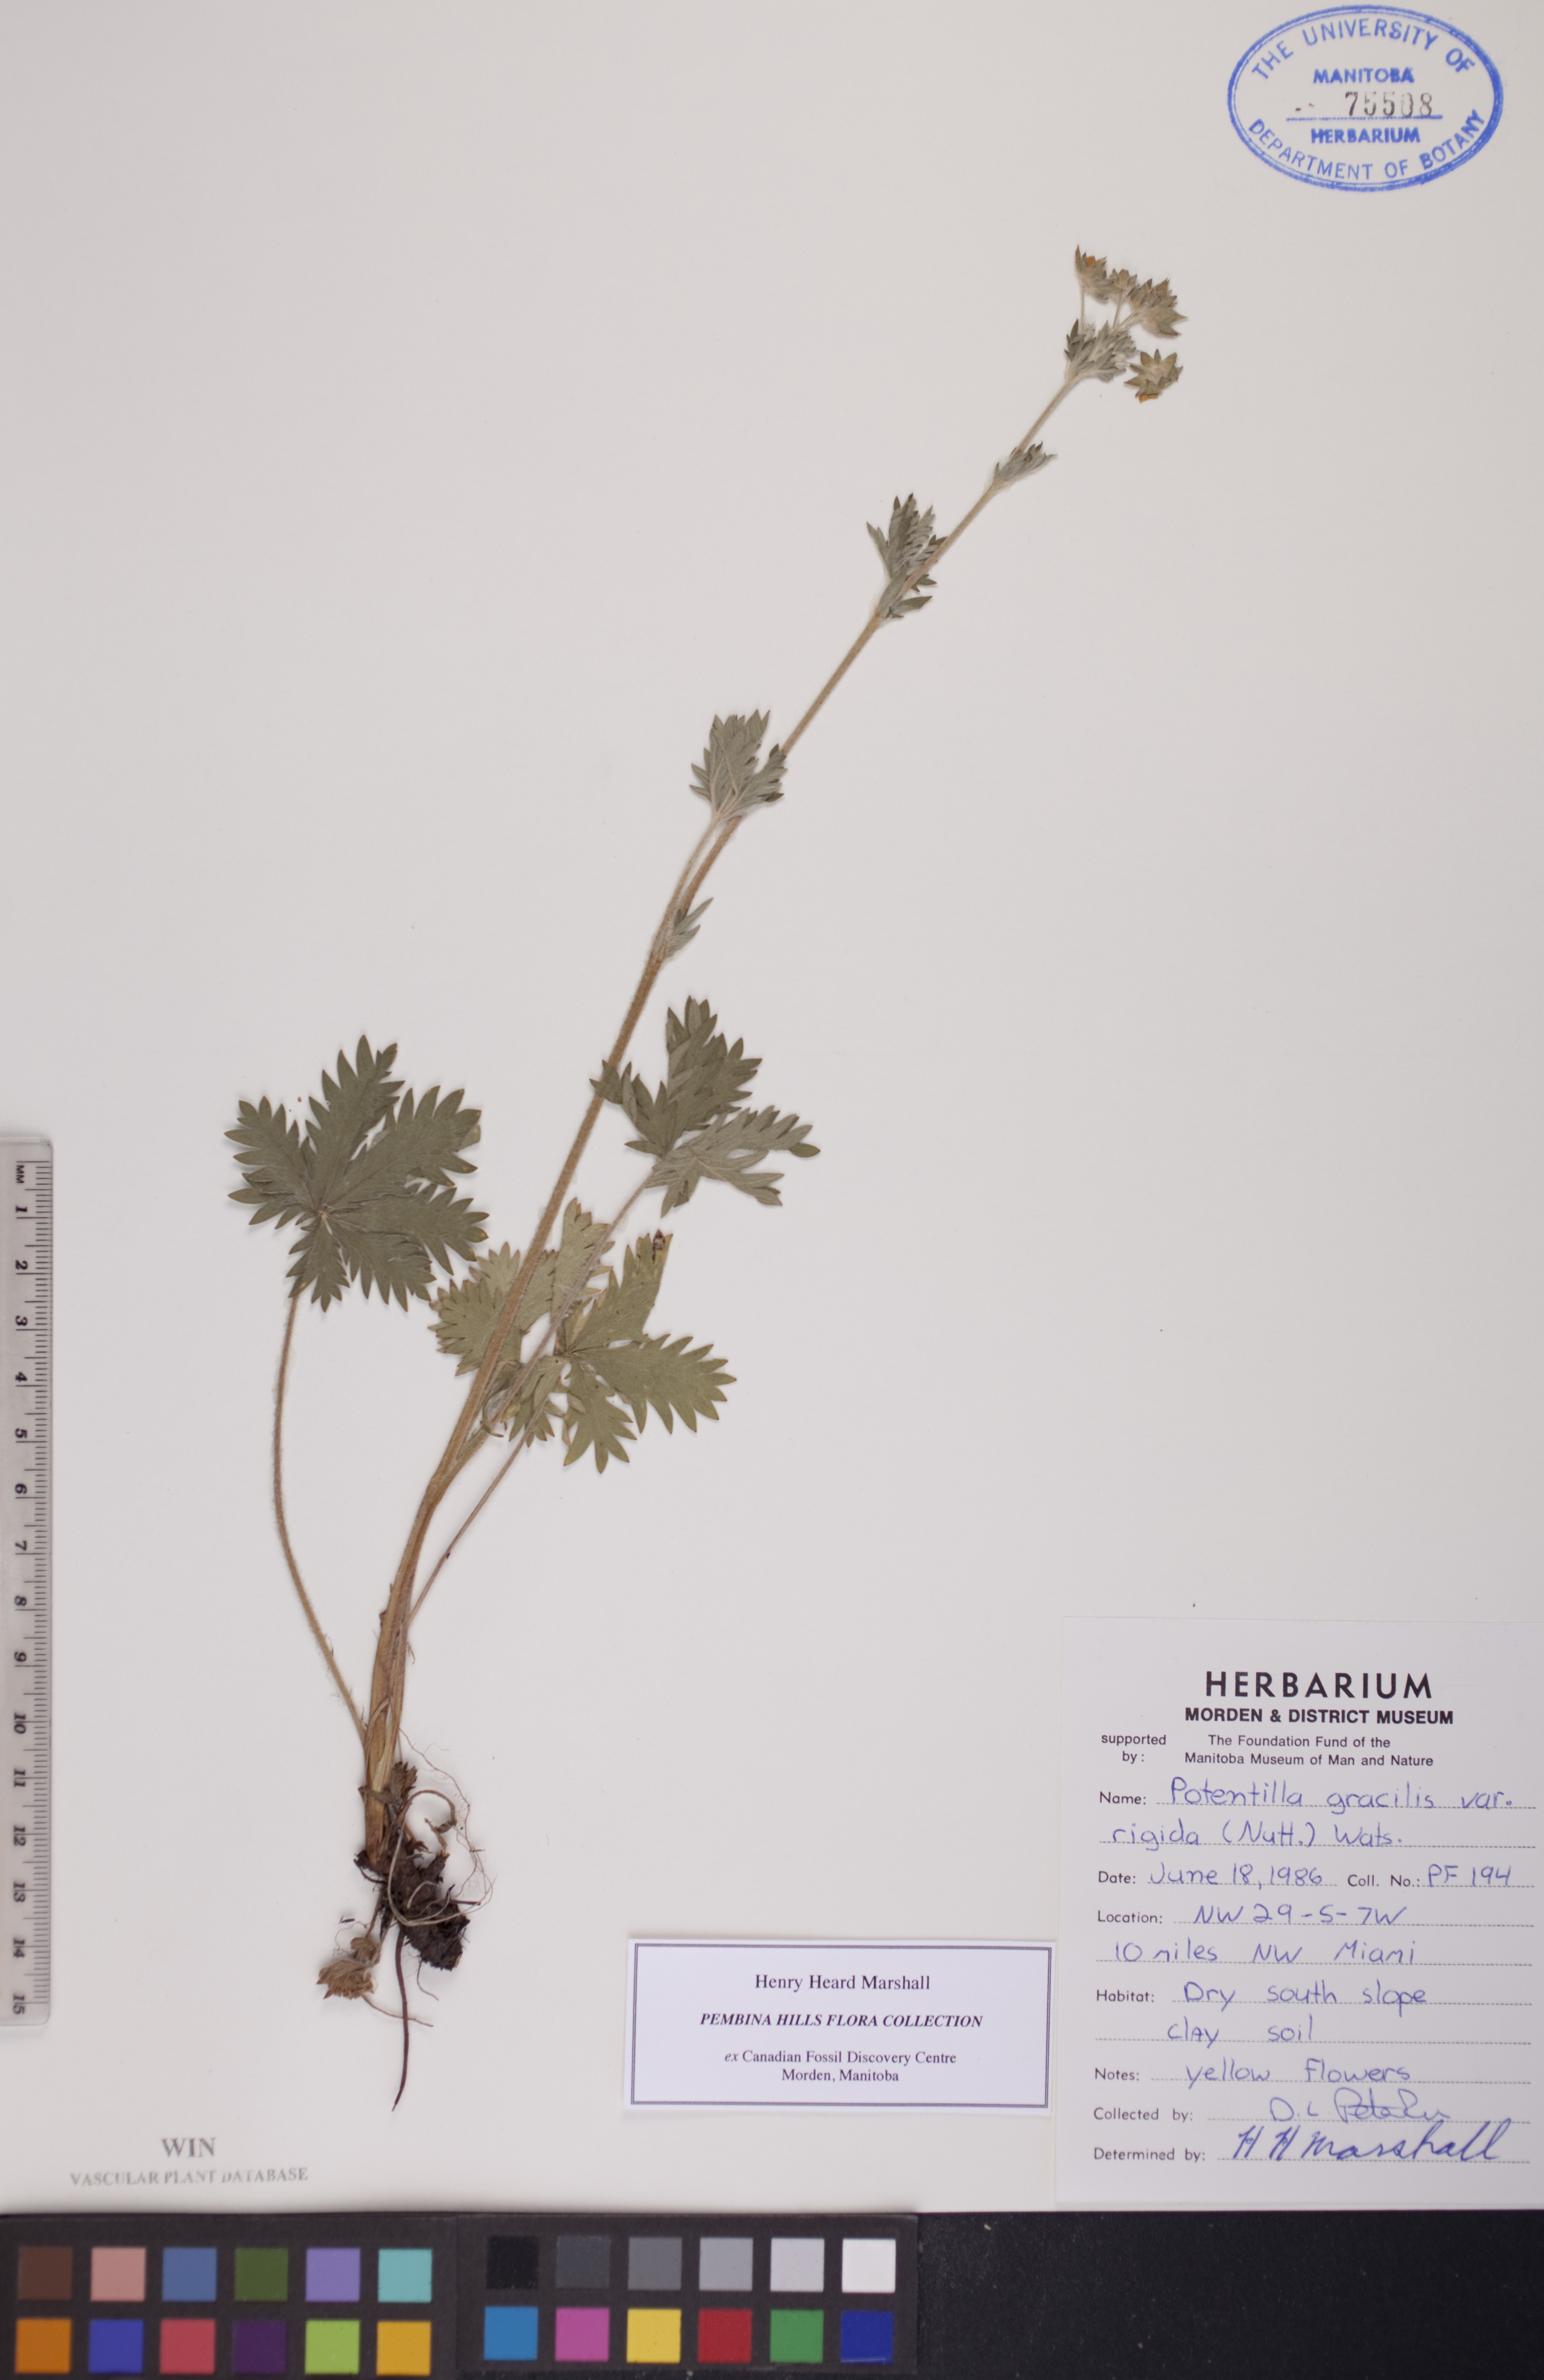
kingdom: Plantae
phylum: Tracheophyta
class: Magnoliopsida
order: Rosales
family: Rosaceae
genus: Potentilla
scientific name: Potentilla gracilis
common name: Graceful cinquefoil
